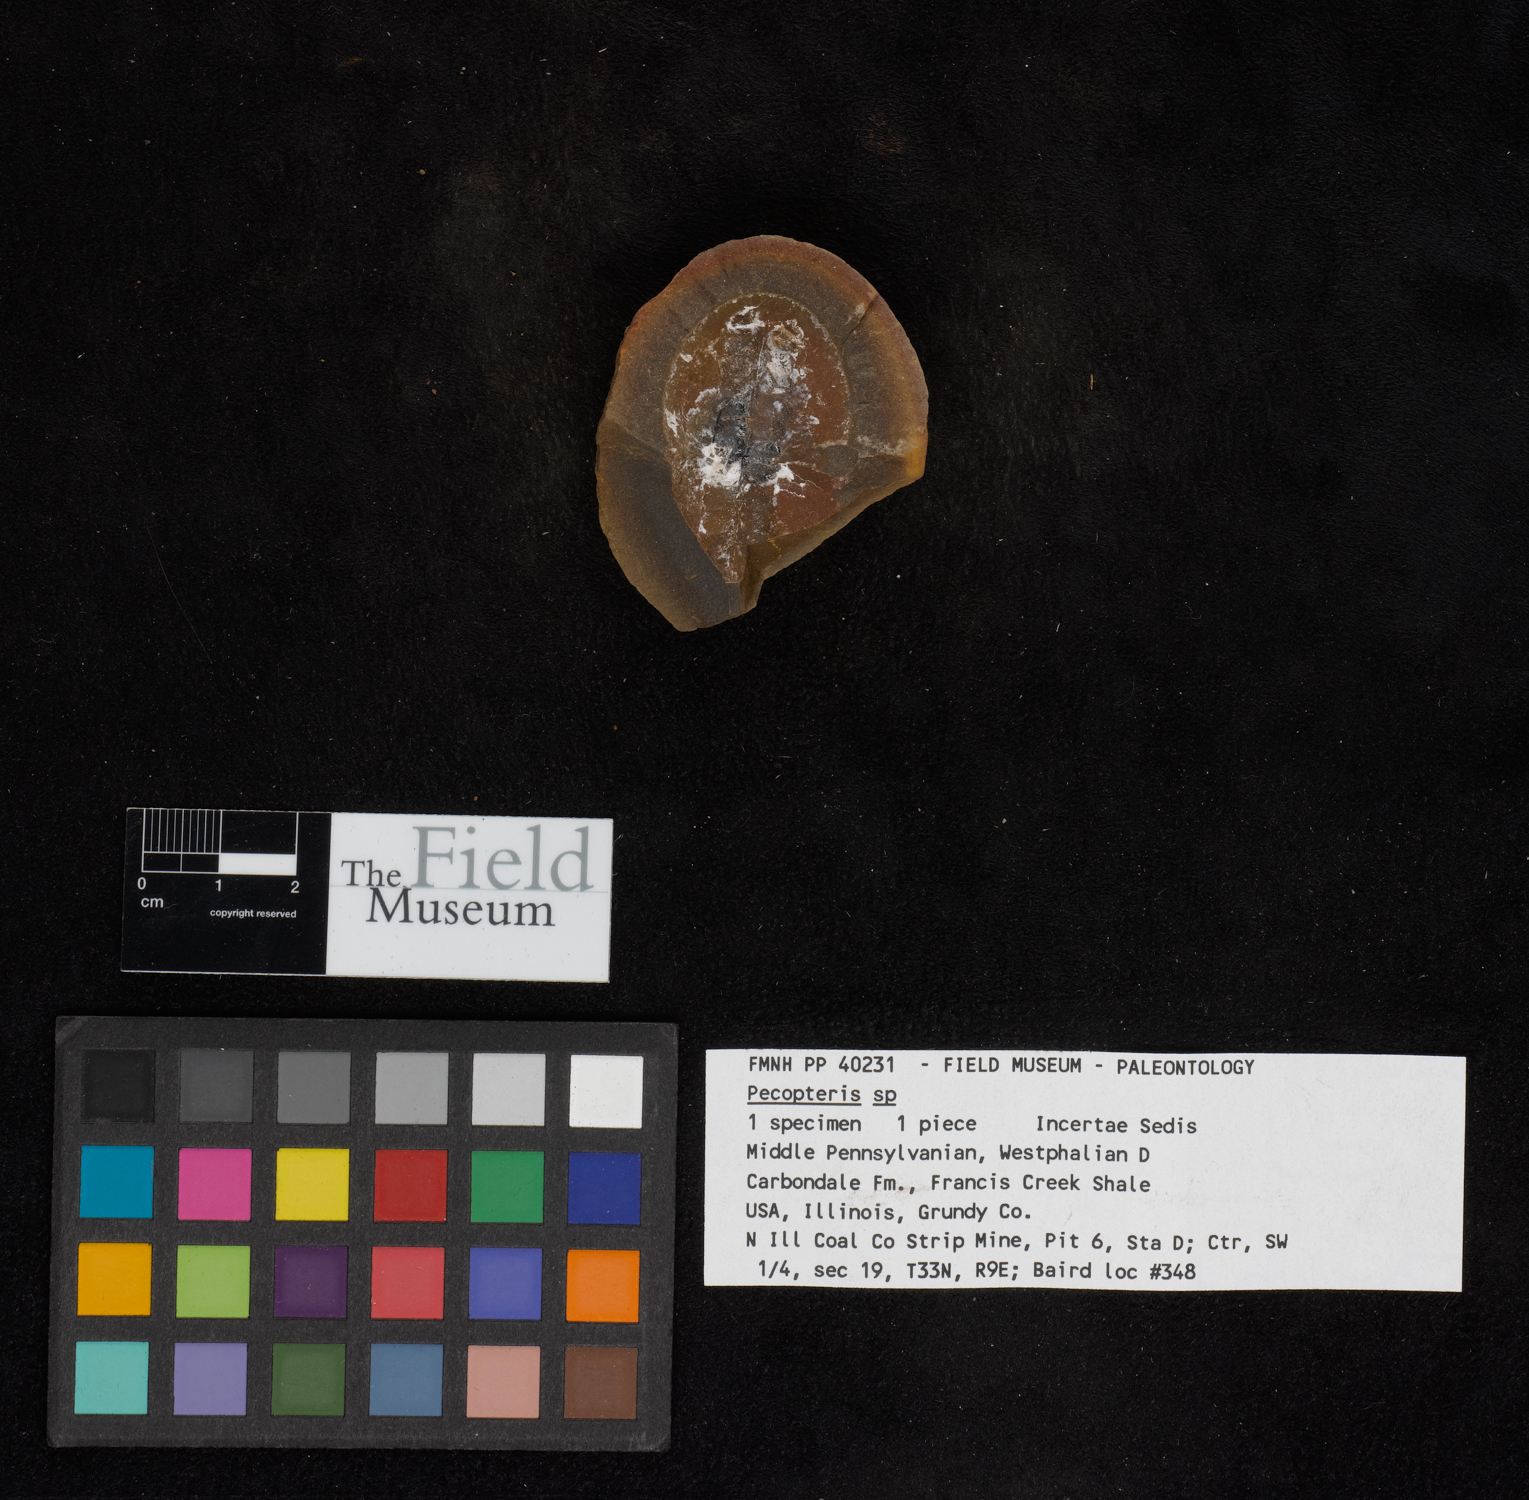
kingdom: Plantae
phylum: Tracheophyta
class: Polypodiopsida
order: Marattiales
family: Asterothecaceae
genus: Pecopteris
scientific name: Pecopteris
